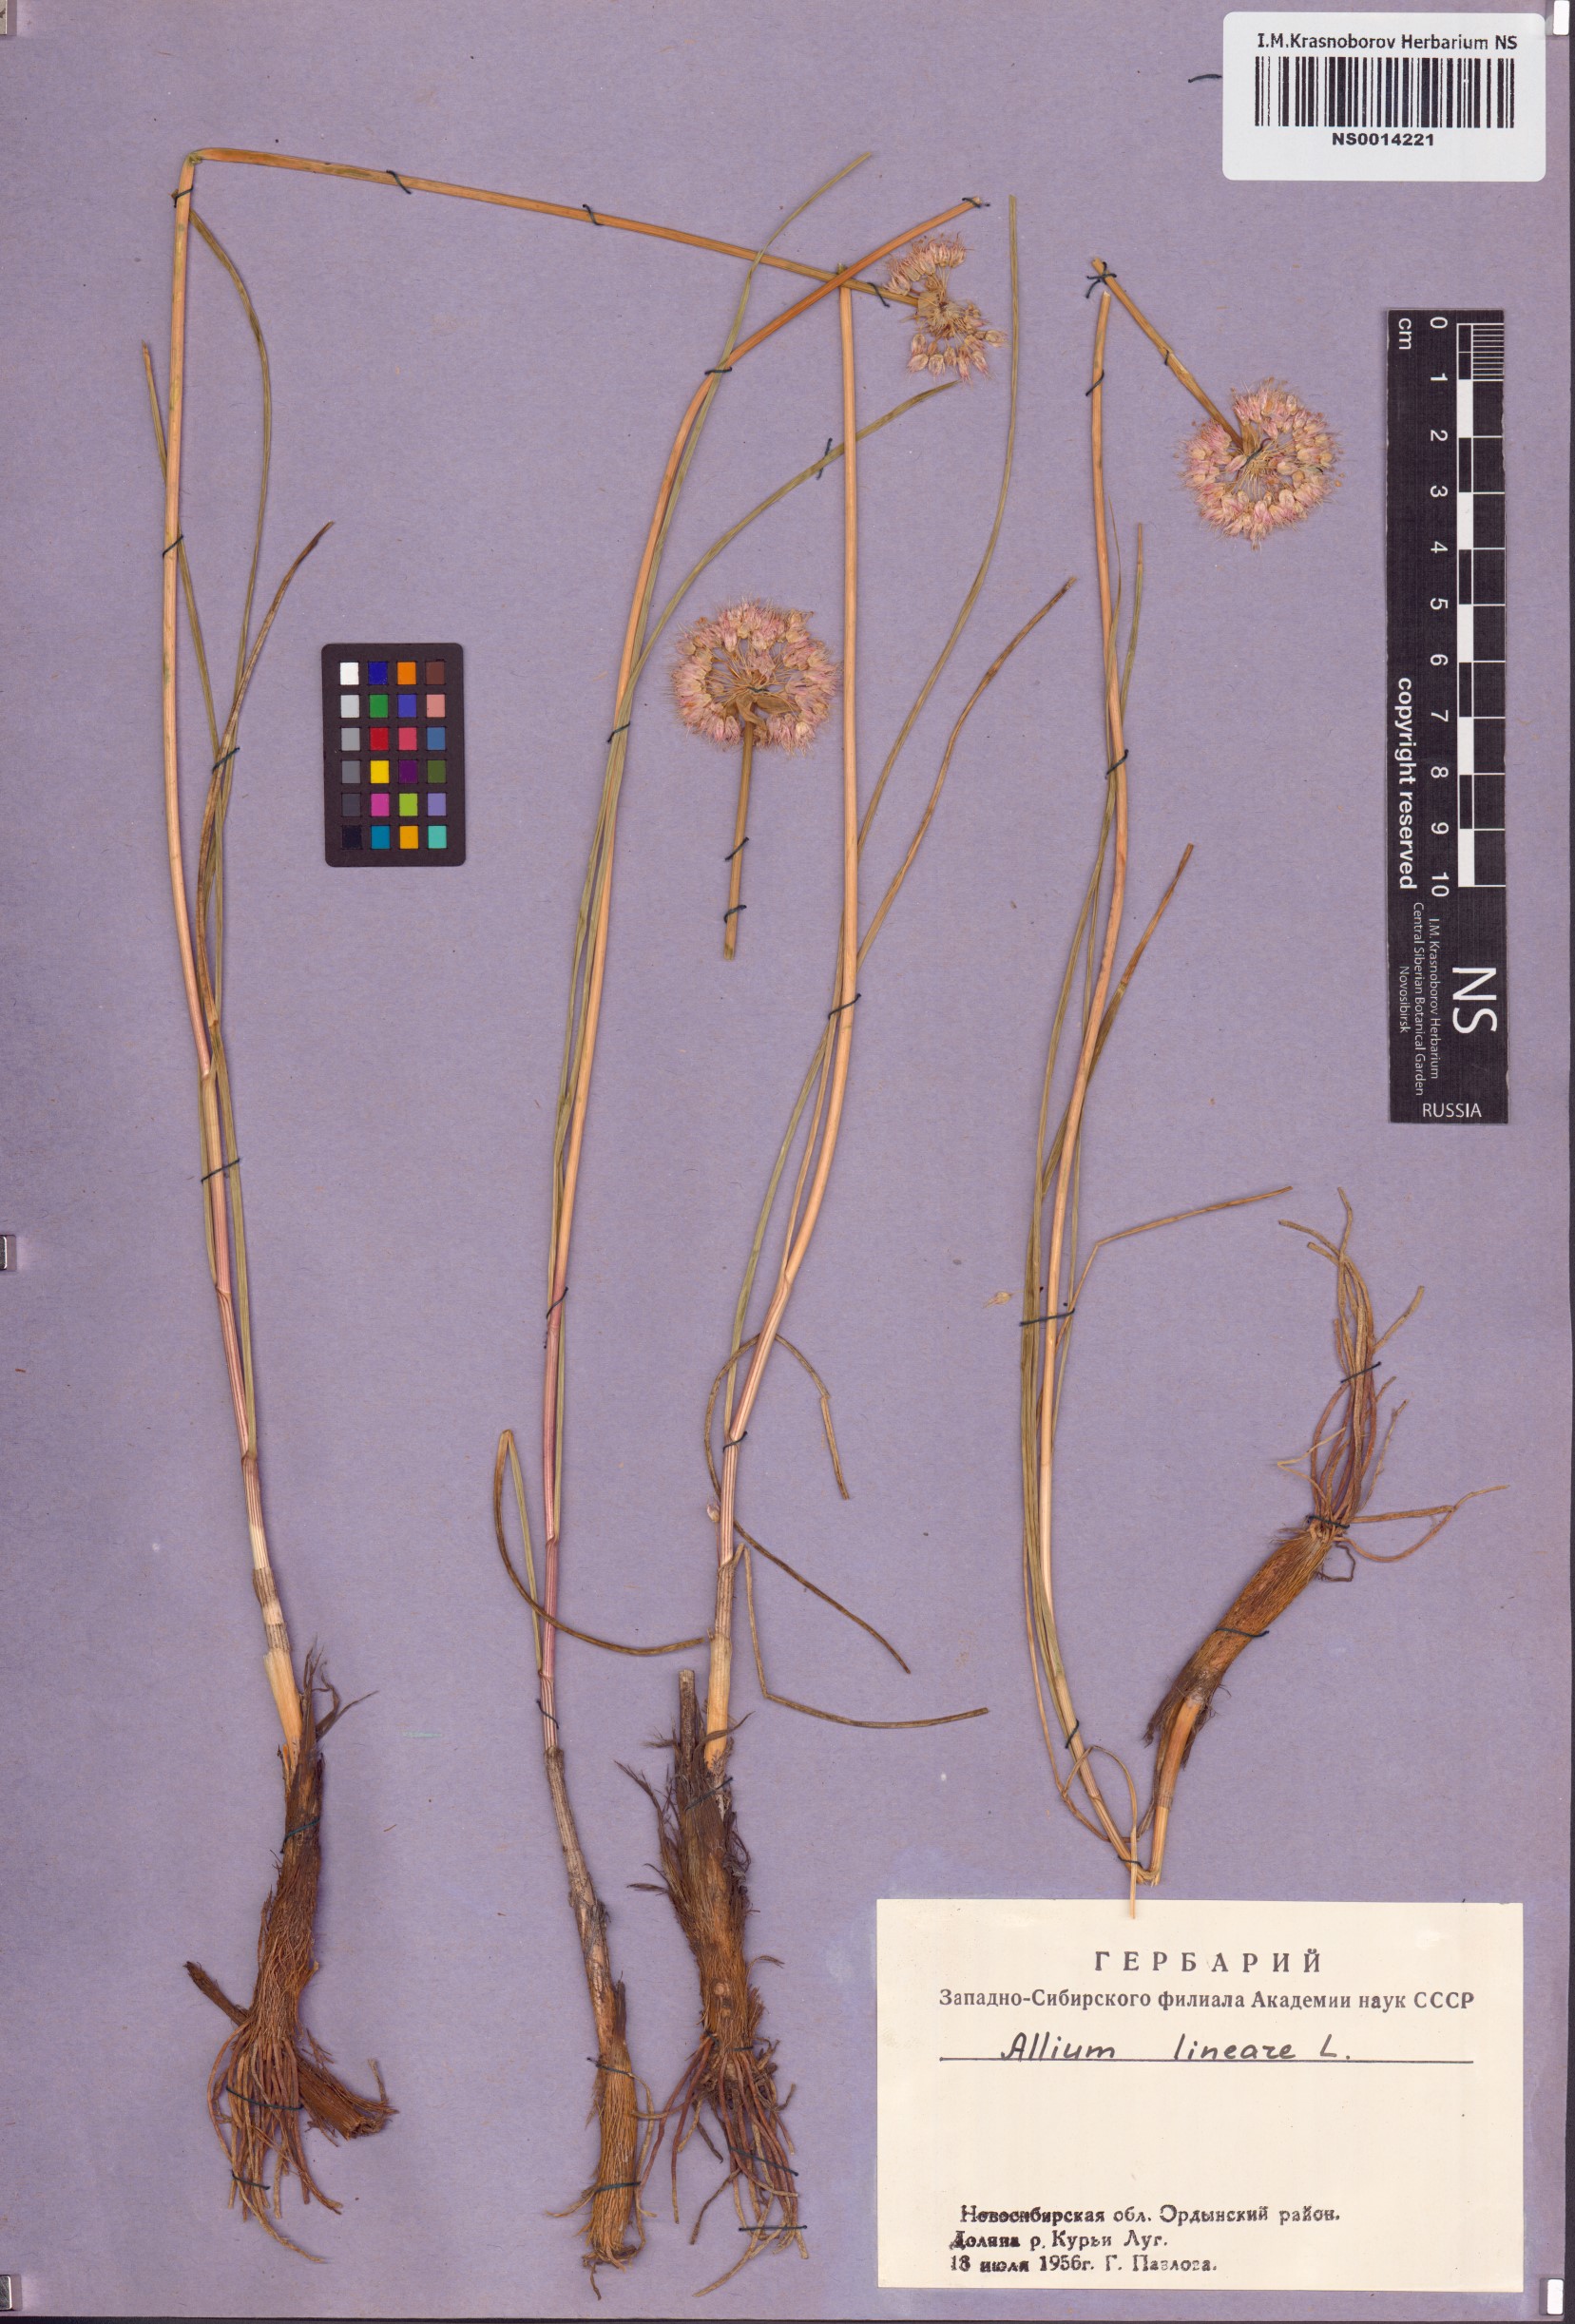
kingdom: Plantae
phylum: Tracheophyta
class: Liliopsida
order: Asparagales
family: Amaryllidaceae
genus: Allium
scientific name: Allium lineare
